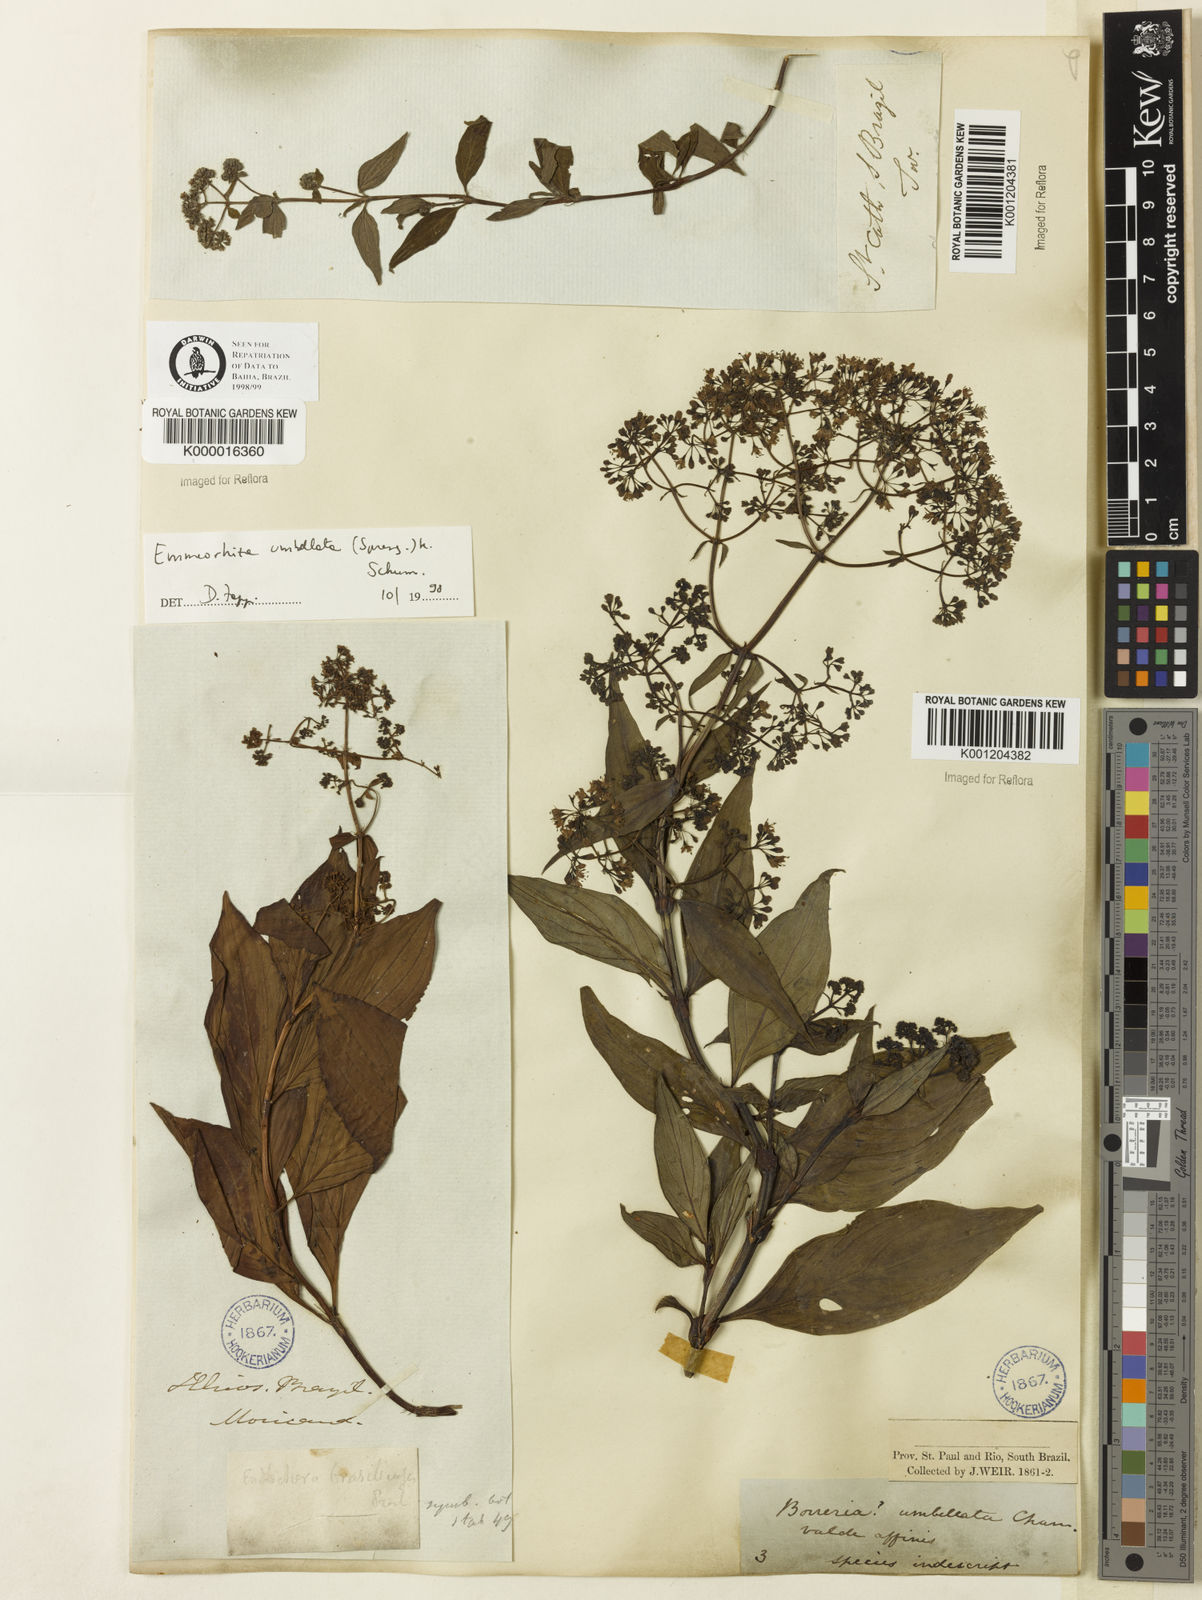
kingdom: Plantae
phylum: Tracheophyta
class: Magnoliopsida
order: Gentianales
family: Rubiaceae
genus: Emmeorhiza
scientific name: Emmeorhiza umbellata
